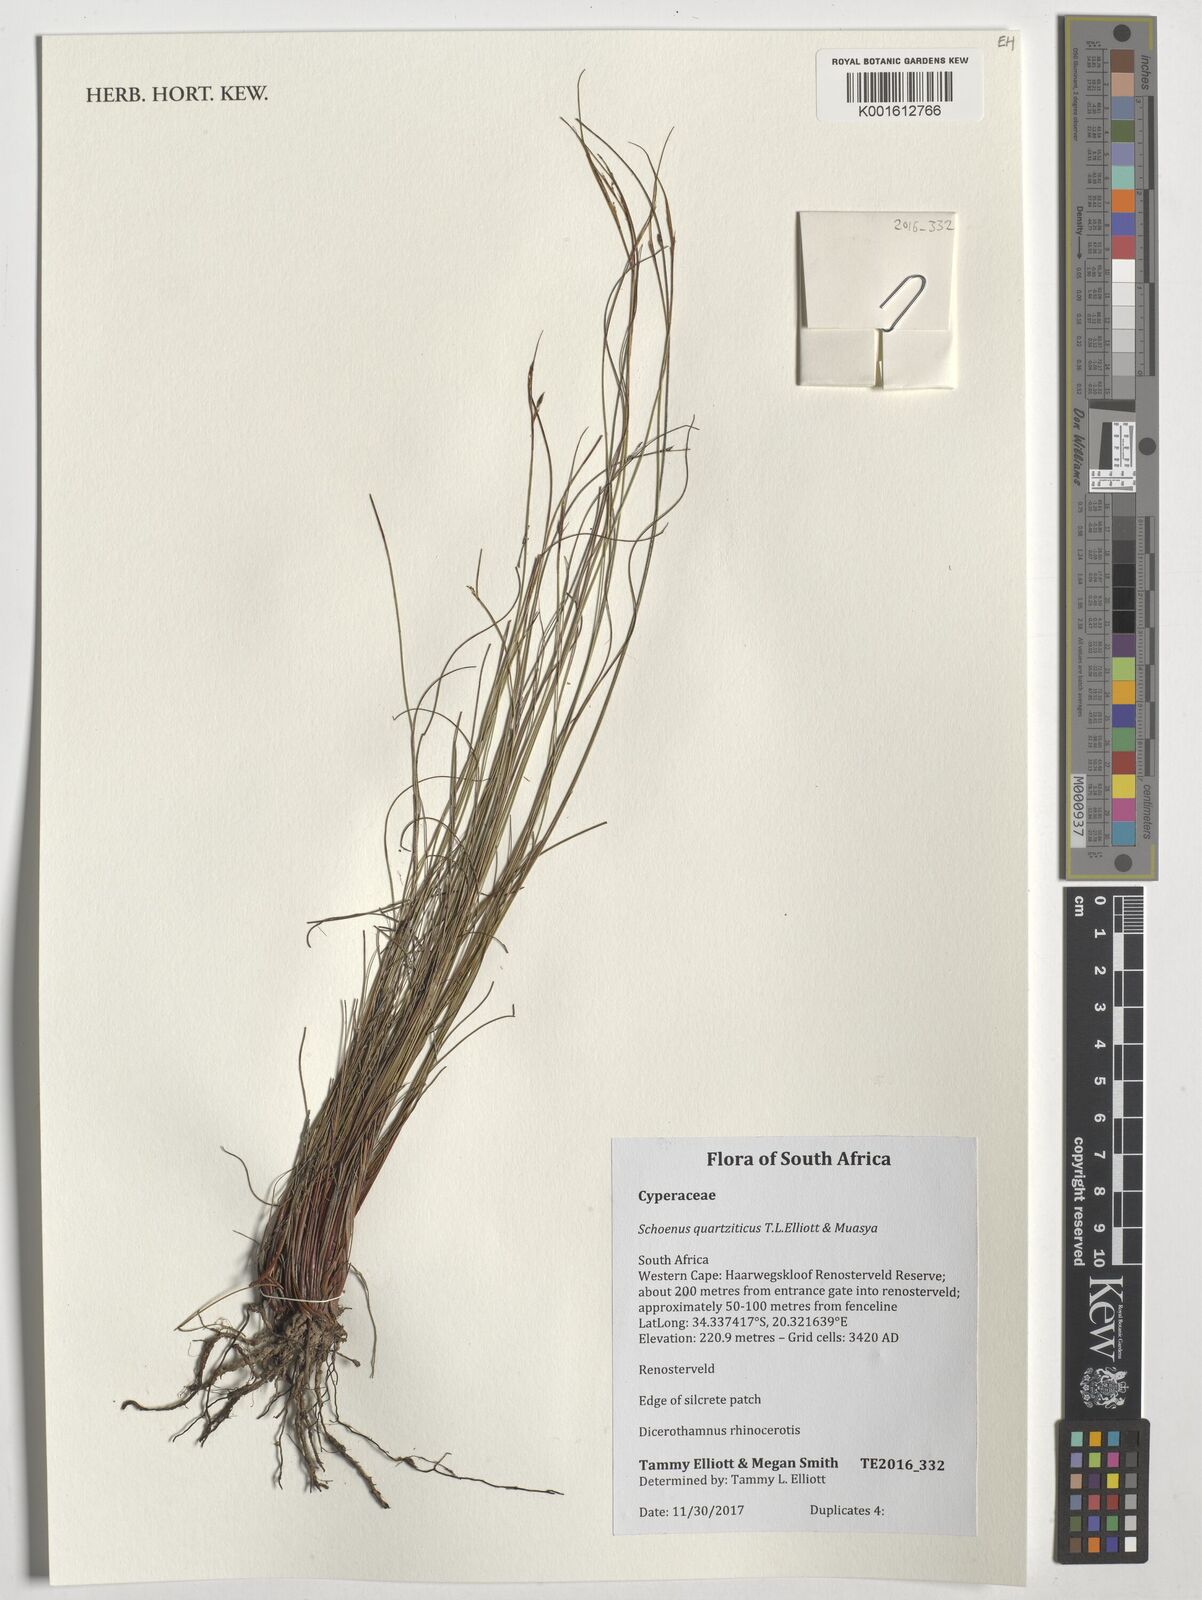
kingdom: Plantae
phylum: Tracheophyta
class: Liliopsida
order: Poales
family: Cyperaceae
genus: Schoenus
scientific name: Schoenus quartziticus
